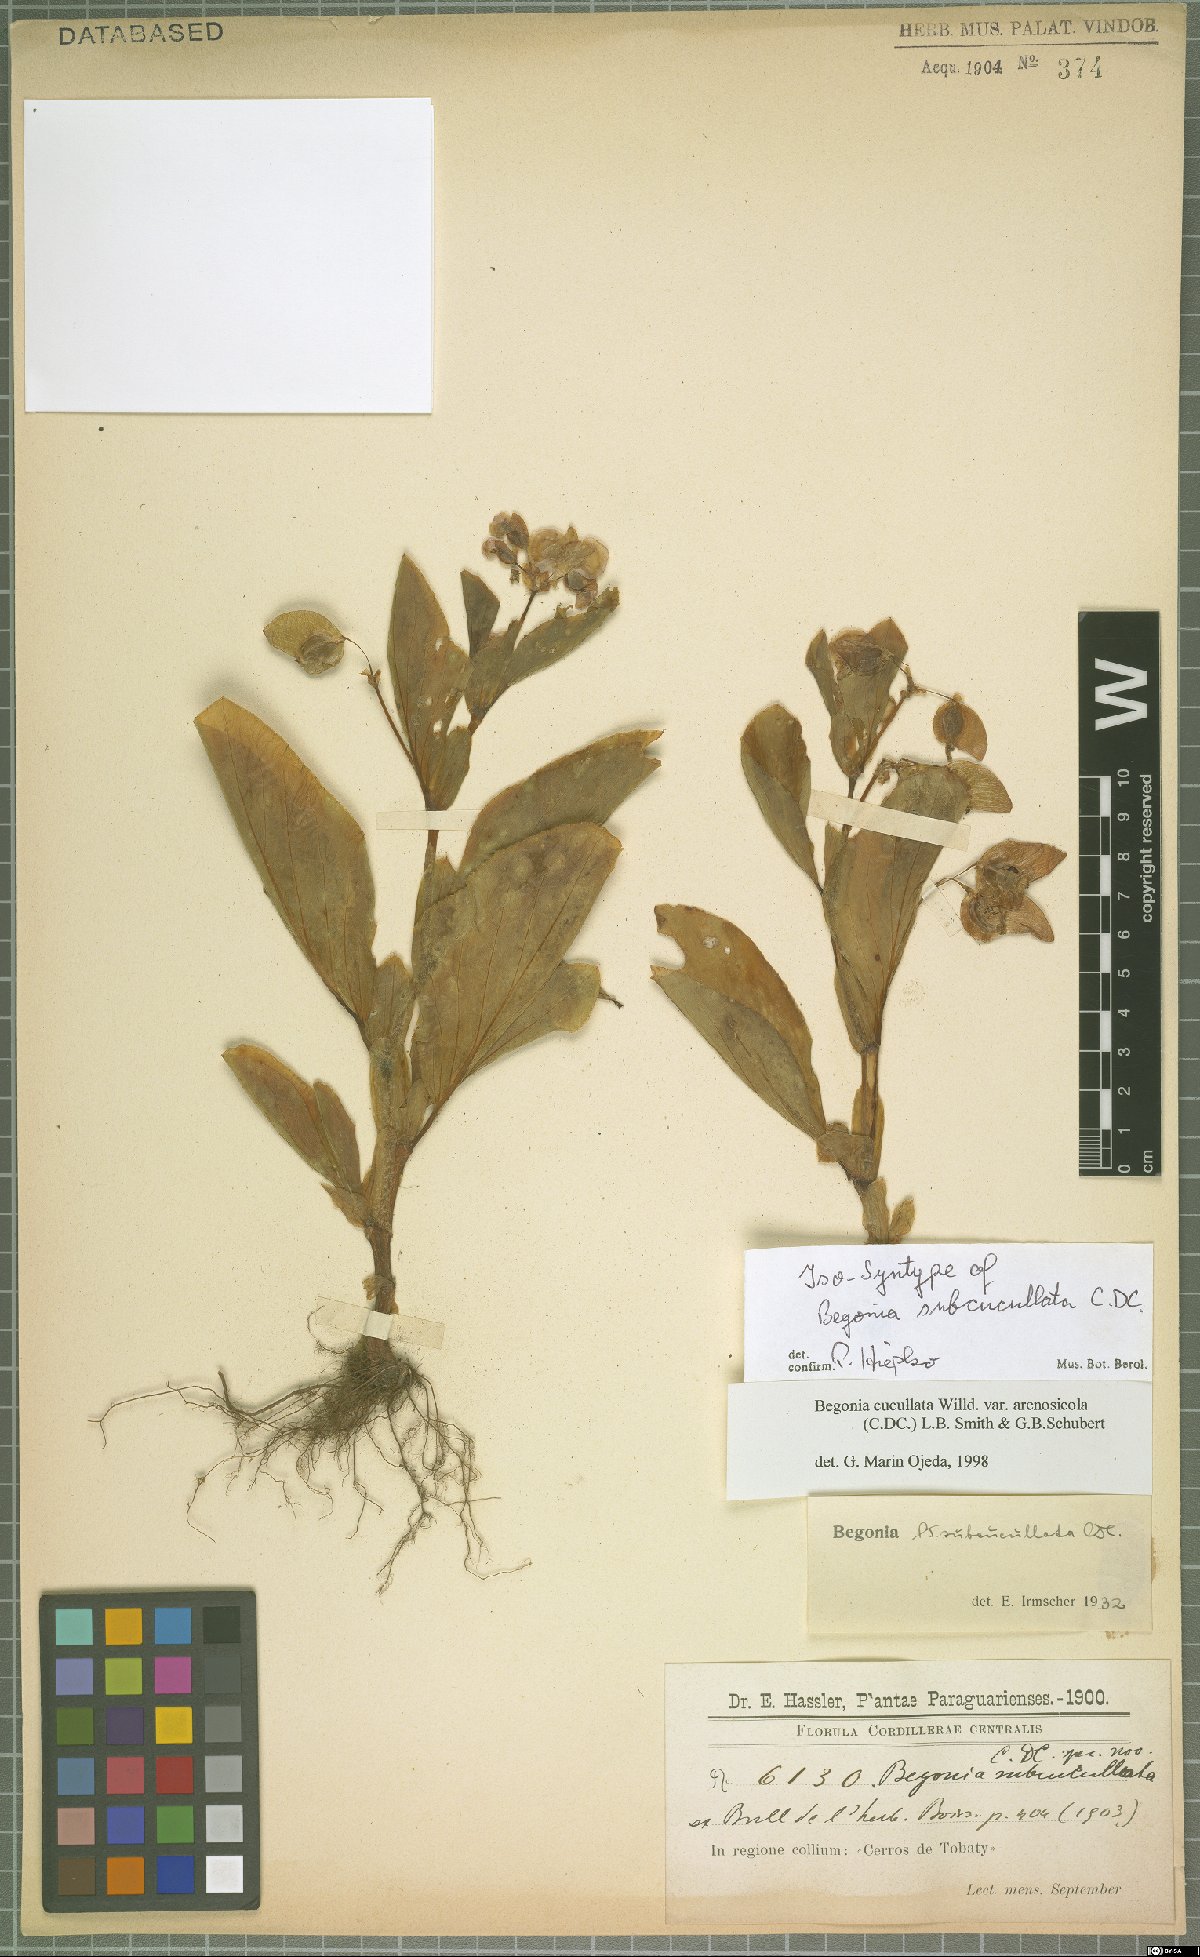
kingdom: Plantae
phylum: Tracheophyta
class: Magnoliopsida
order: Cucurbitales
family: Begoniaceae
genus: Begonia
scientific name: Begonia cucullata
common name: Clubbed begonia
